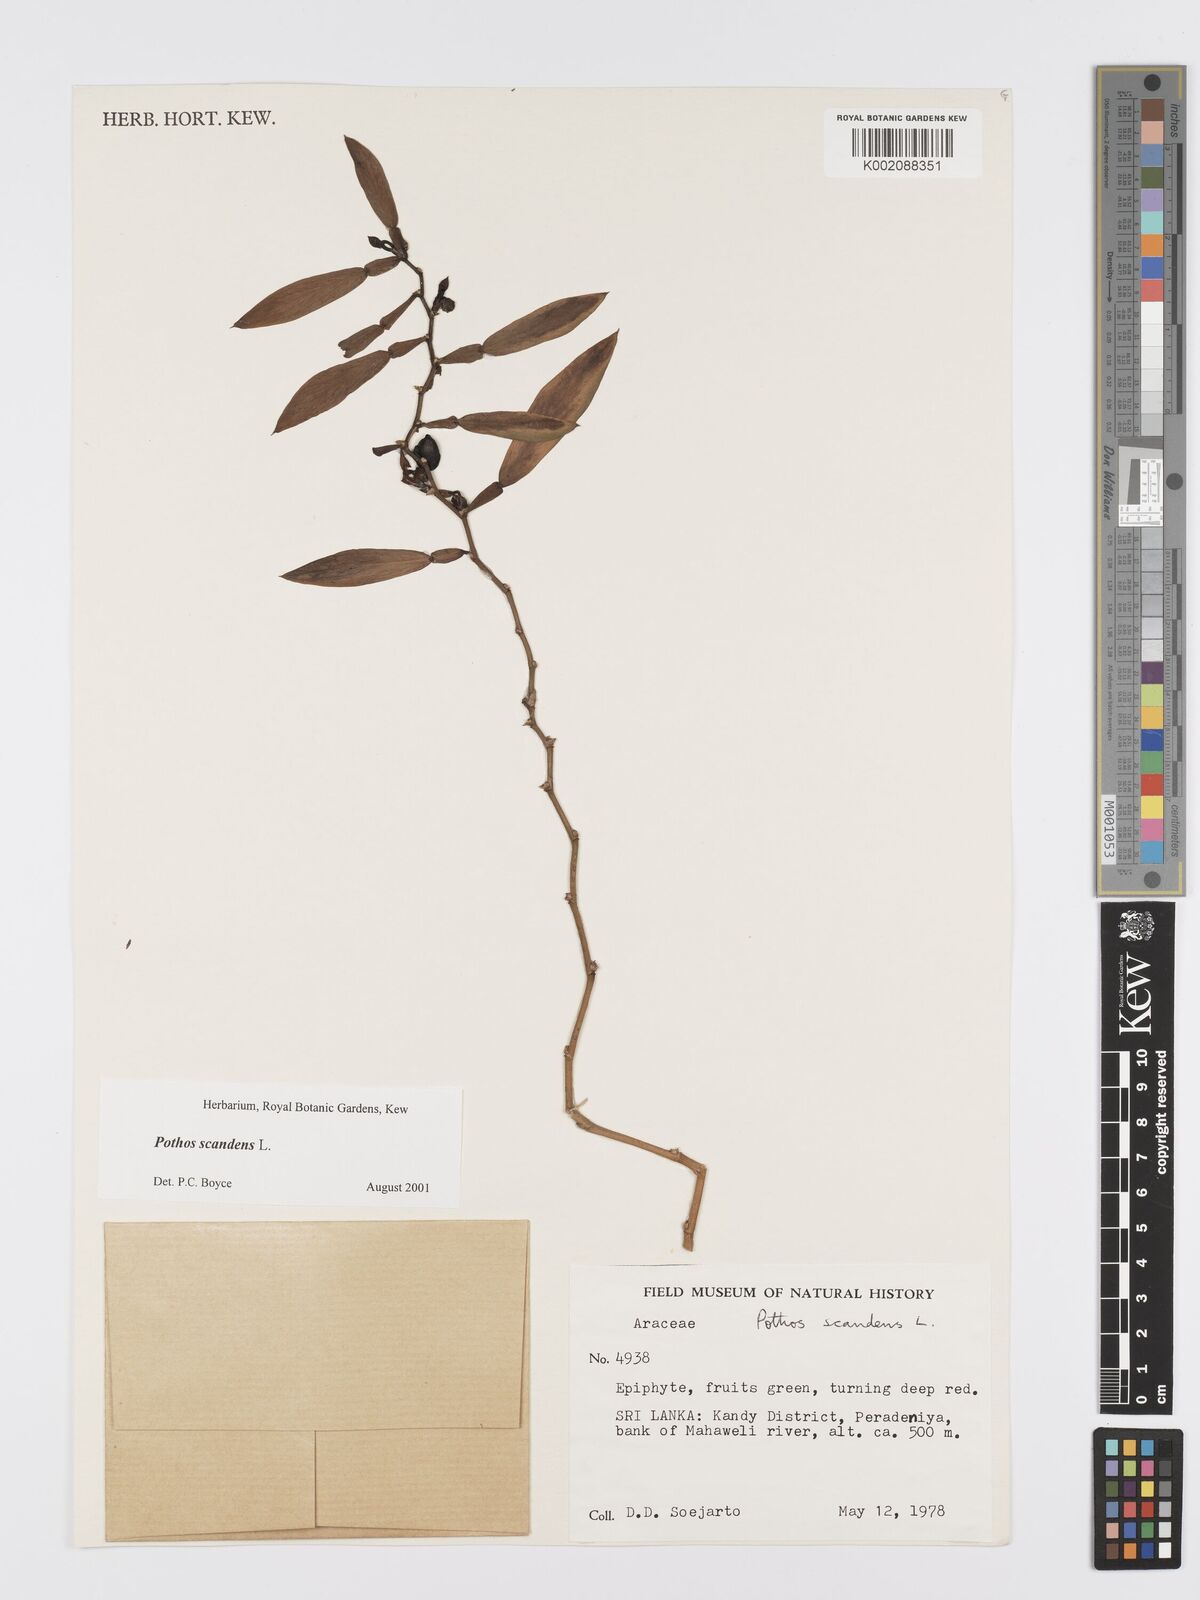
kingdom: Plantae
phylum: Tracheophyta
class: Liliopsida
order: Alismatales
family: Araceae
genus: Pothos
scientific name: Pothos scandens
